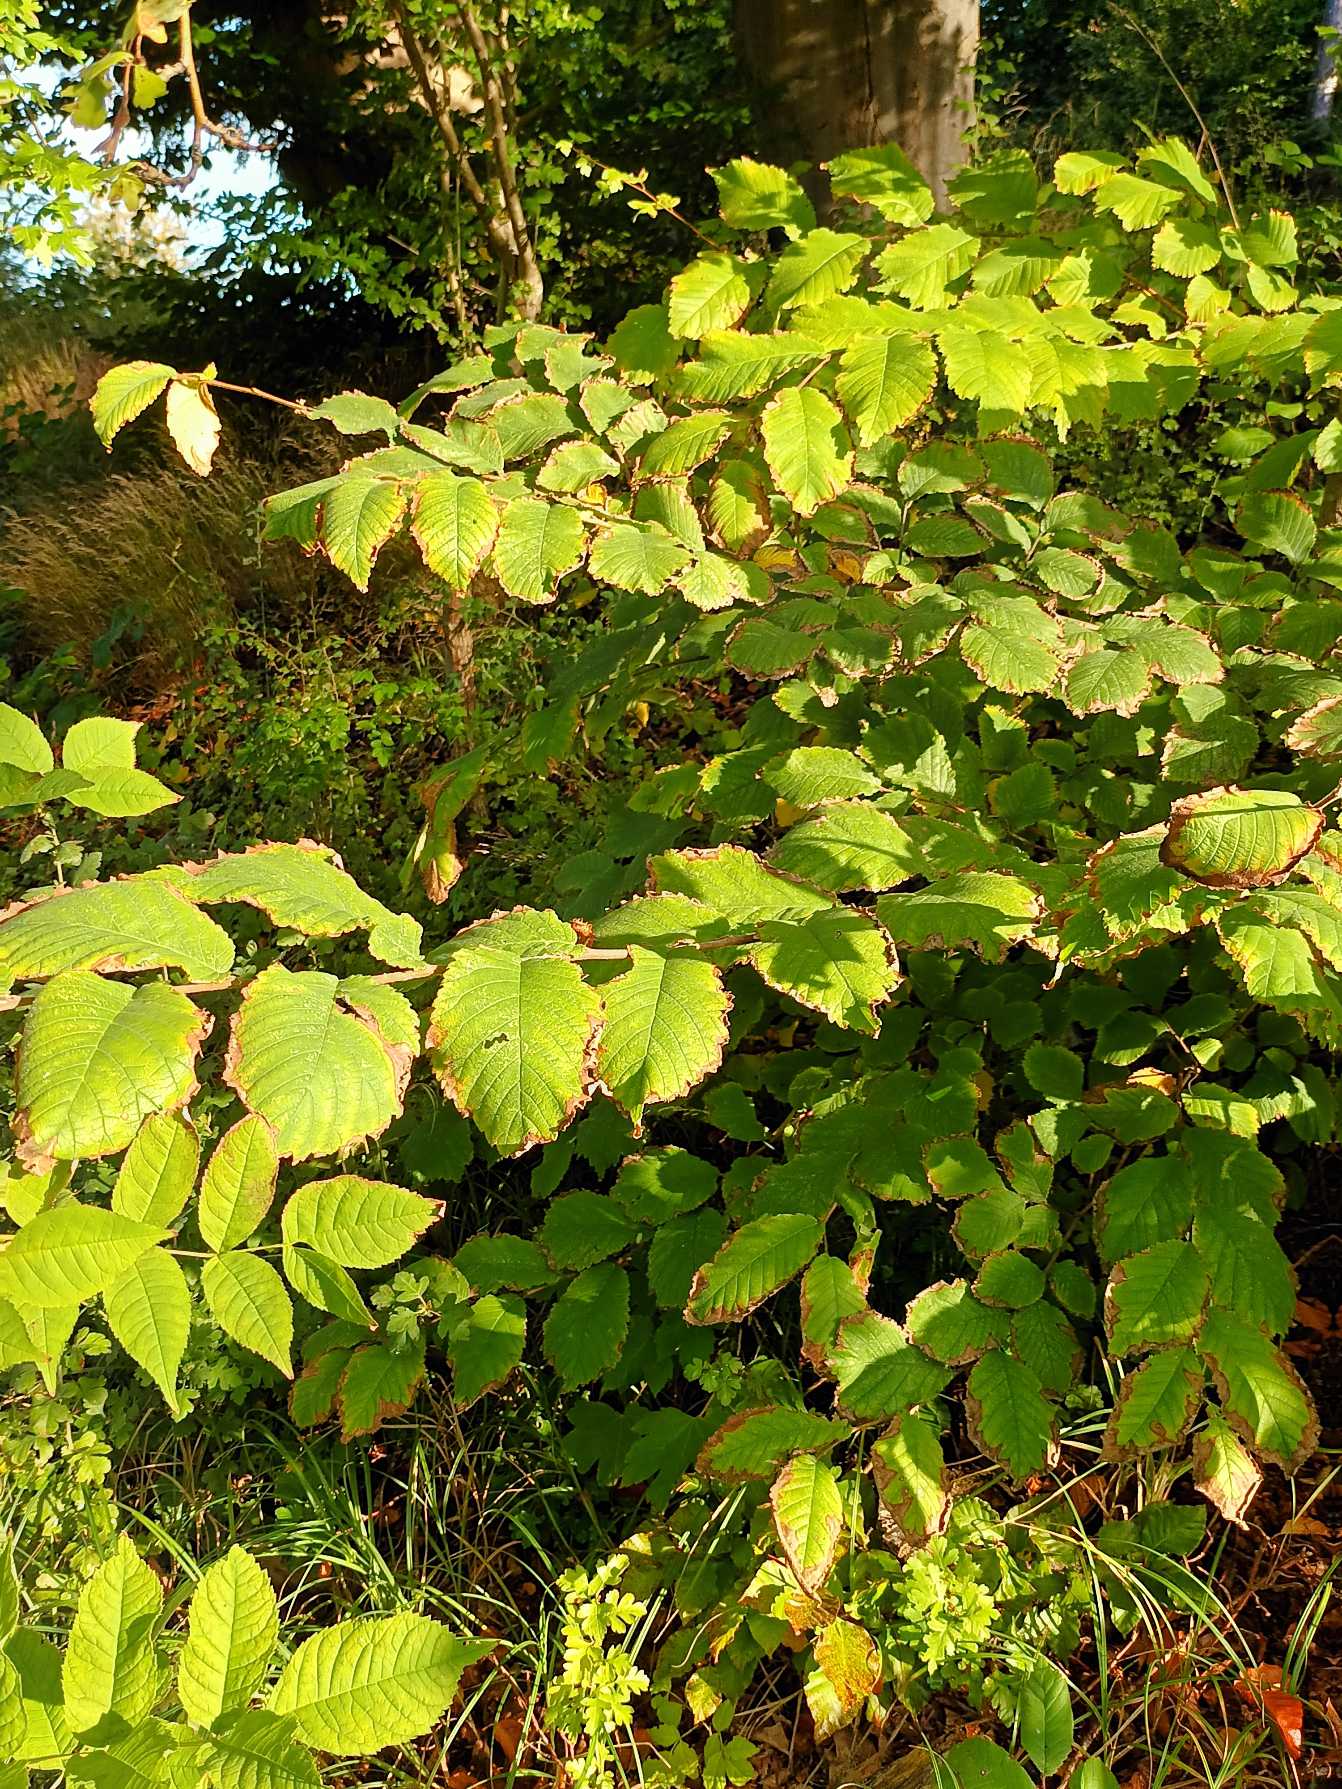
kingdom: Plantae
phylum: Tracheophyta
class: Magnoliopsida
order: Rosales
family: Ulmaceae
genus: Ulmus
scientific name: Ulmus glabra
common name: Skov-elm/storbladet elm
